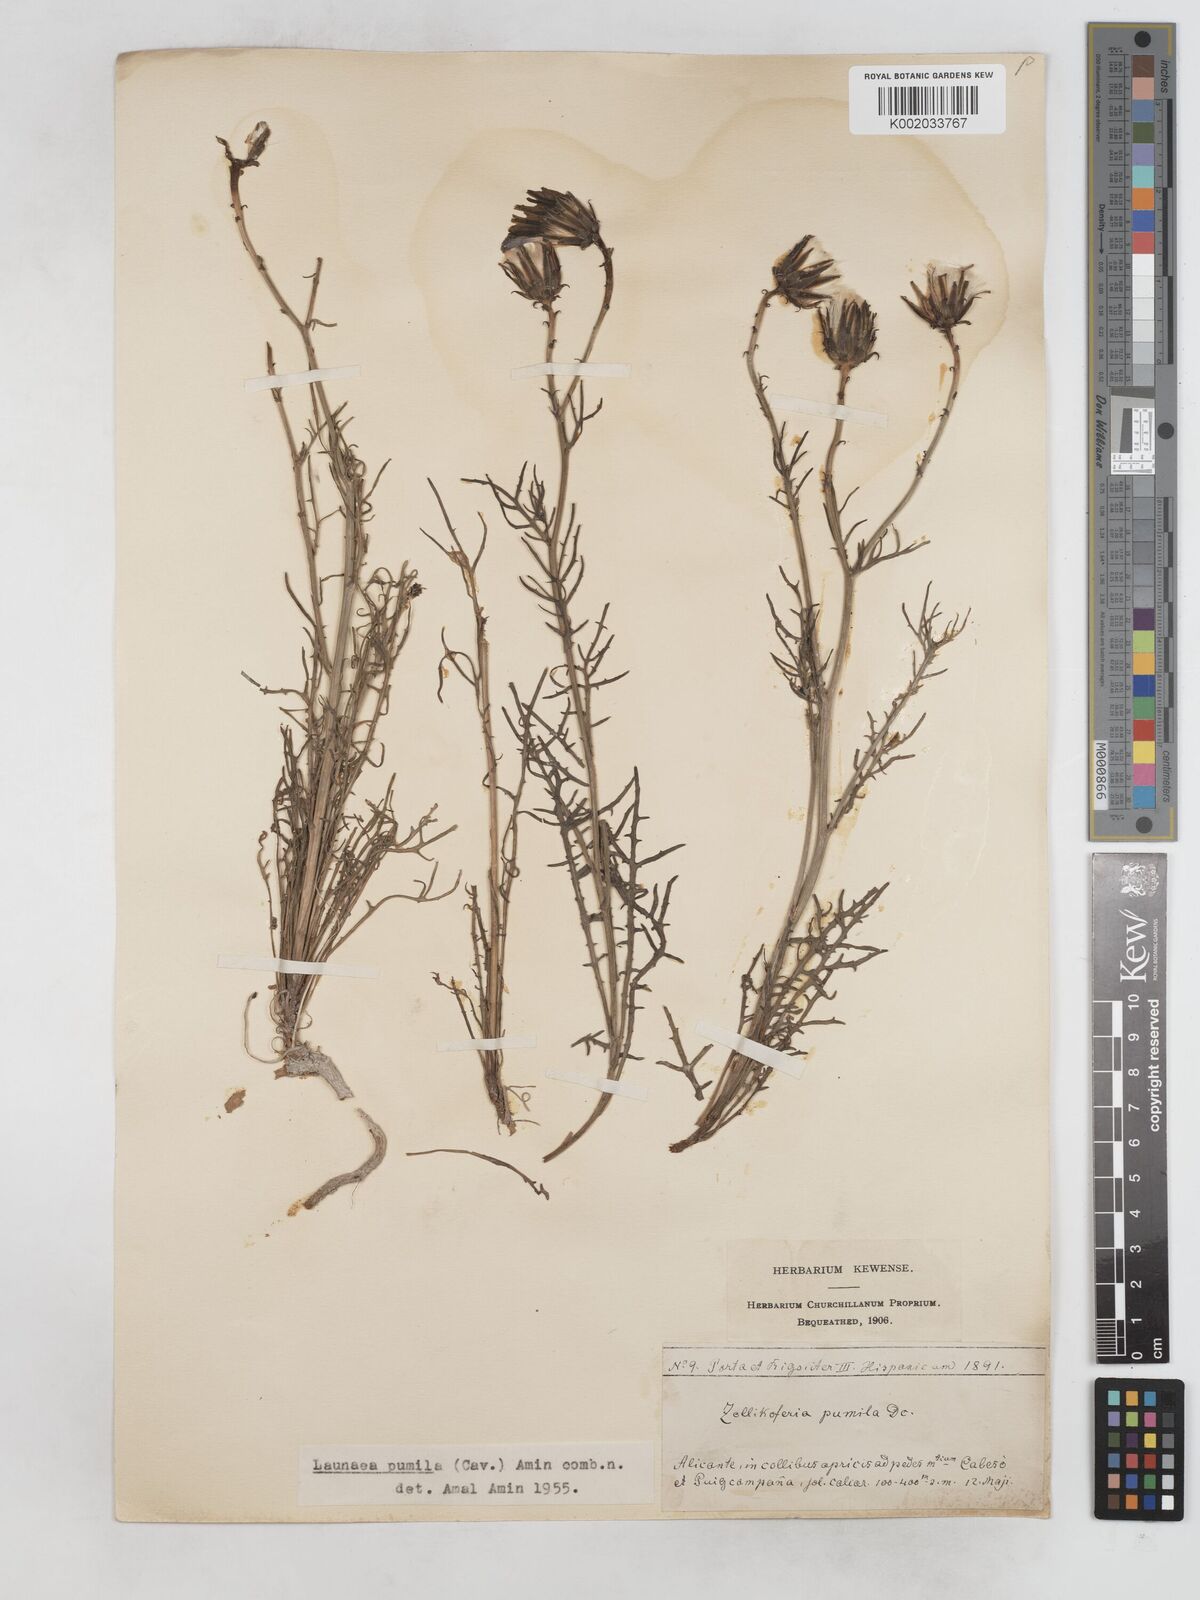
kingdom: Plantae
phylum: Tracheophyta
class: Magnoliopsida
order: Asterales
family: Asteraceae
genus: Launaea
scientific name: Launaea pumila
